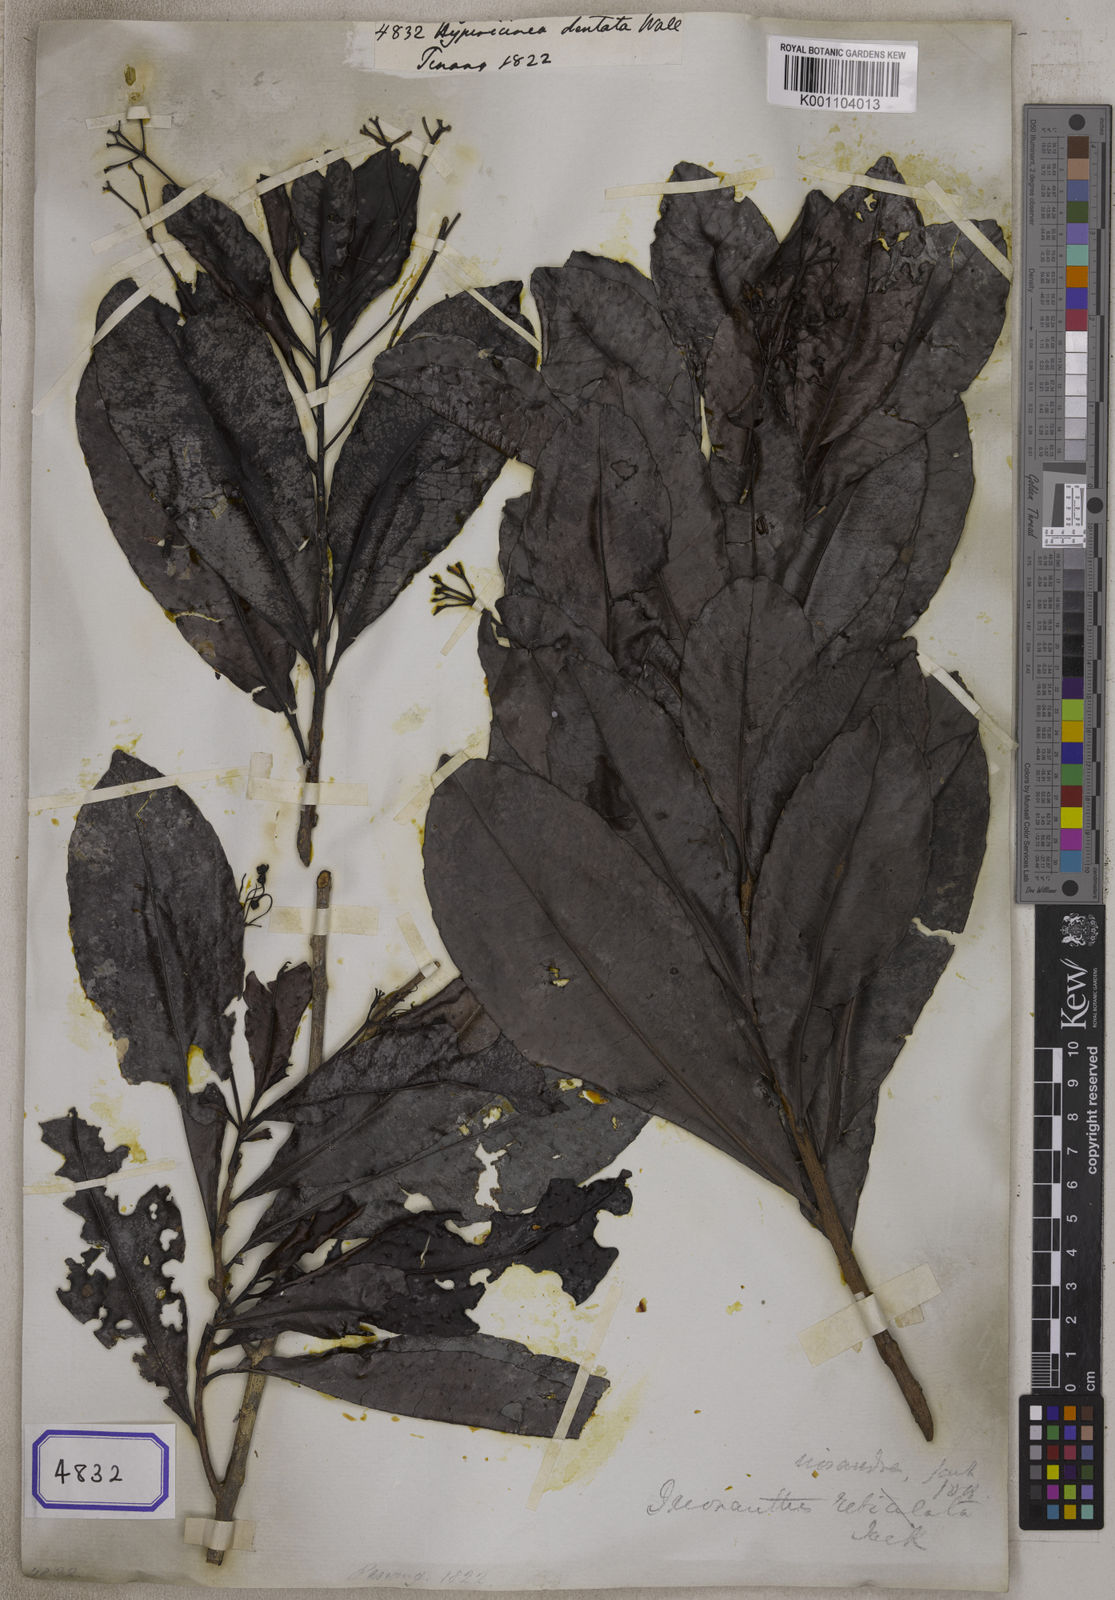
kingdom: Plantae
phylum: Tracheophyta
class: Magnoliopsida
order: Malpighiales
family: Ixonanthaceae
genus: Ixonanthes
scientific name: Ixonanthes icosandra
